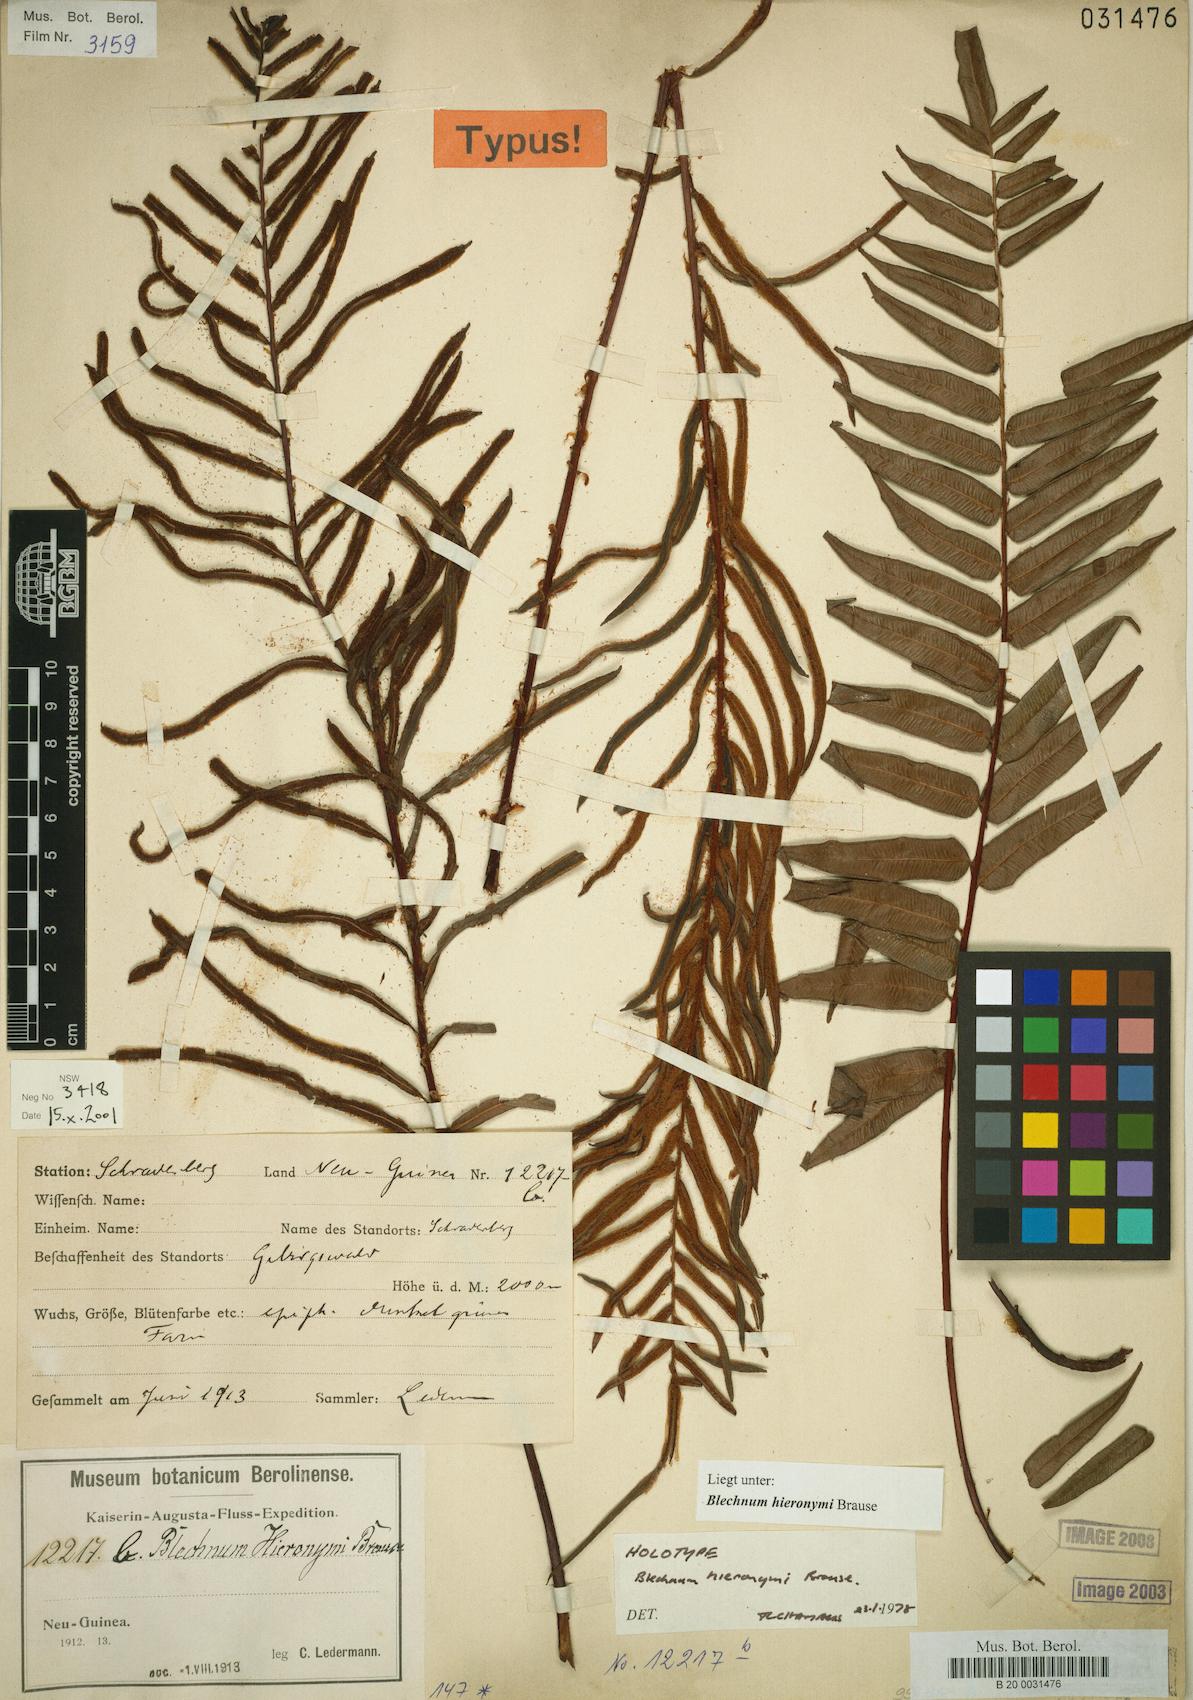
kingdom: Plantae
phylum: Tracheophyta
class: Polypodiopsida
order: Polypodiales
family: Blechnaceae
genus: Parablechnum
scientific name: Parablechnum hieronymi
